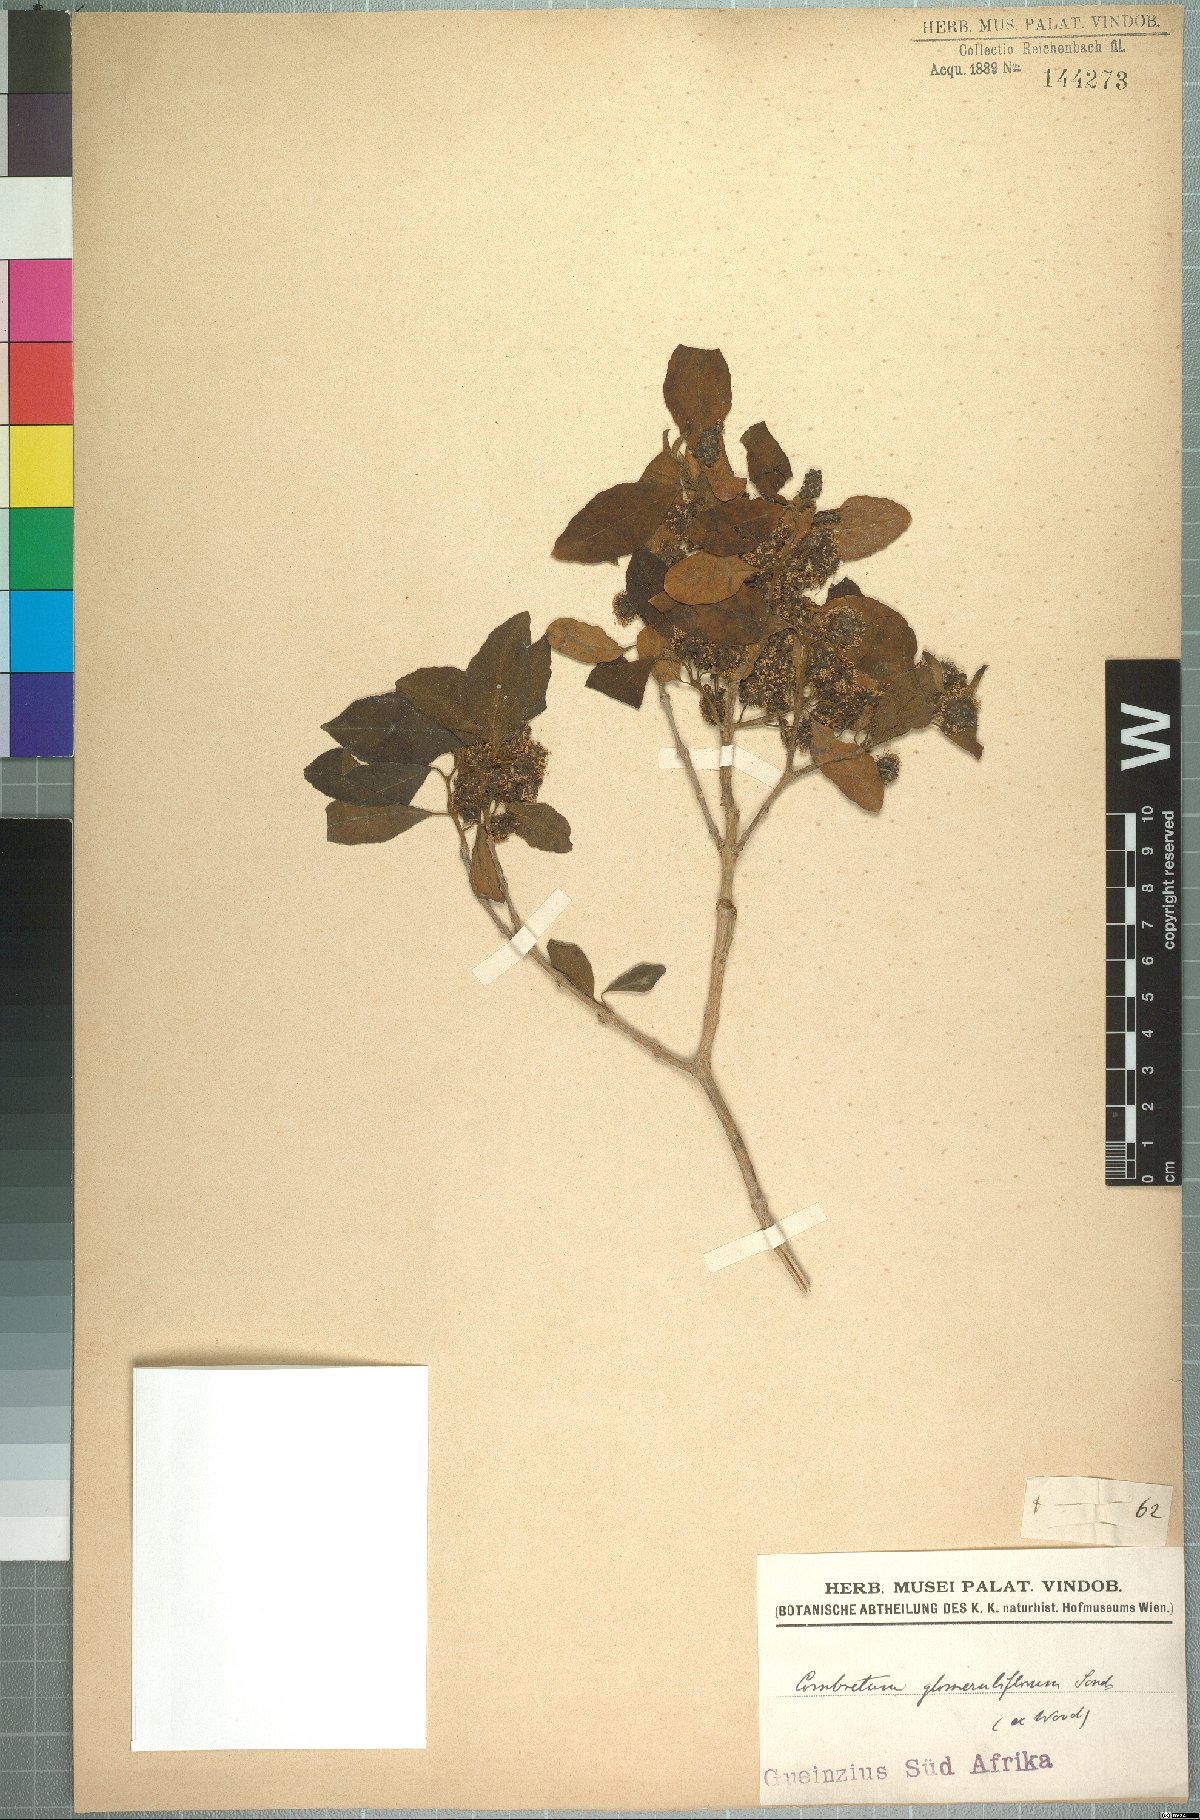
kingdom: Plantae
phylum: Tracheophyta
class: Magnoliopsida
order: Myrtales
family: Combretaceae
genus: Combretum
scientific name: Combretum erythrophyllum
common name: Bush-willow
